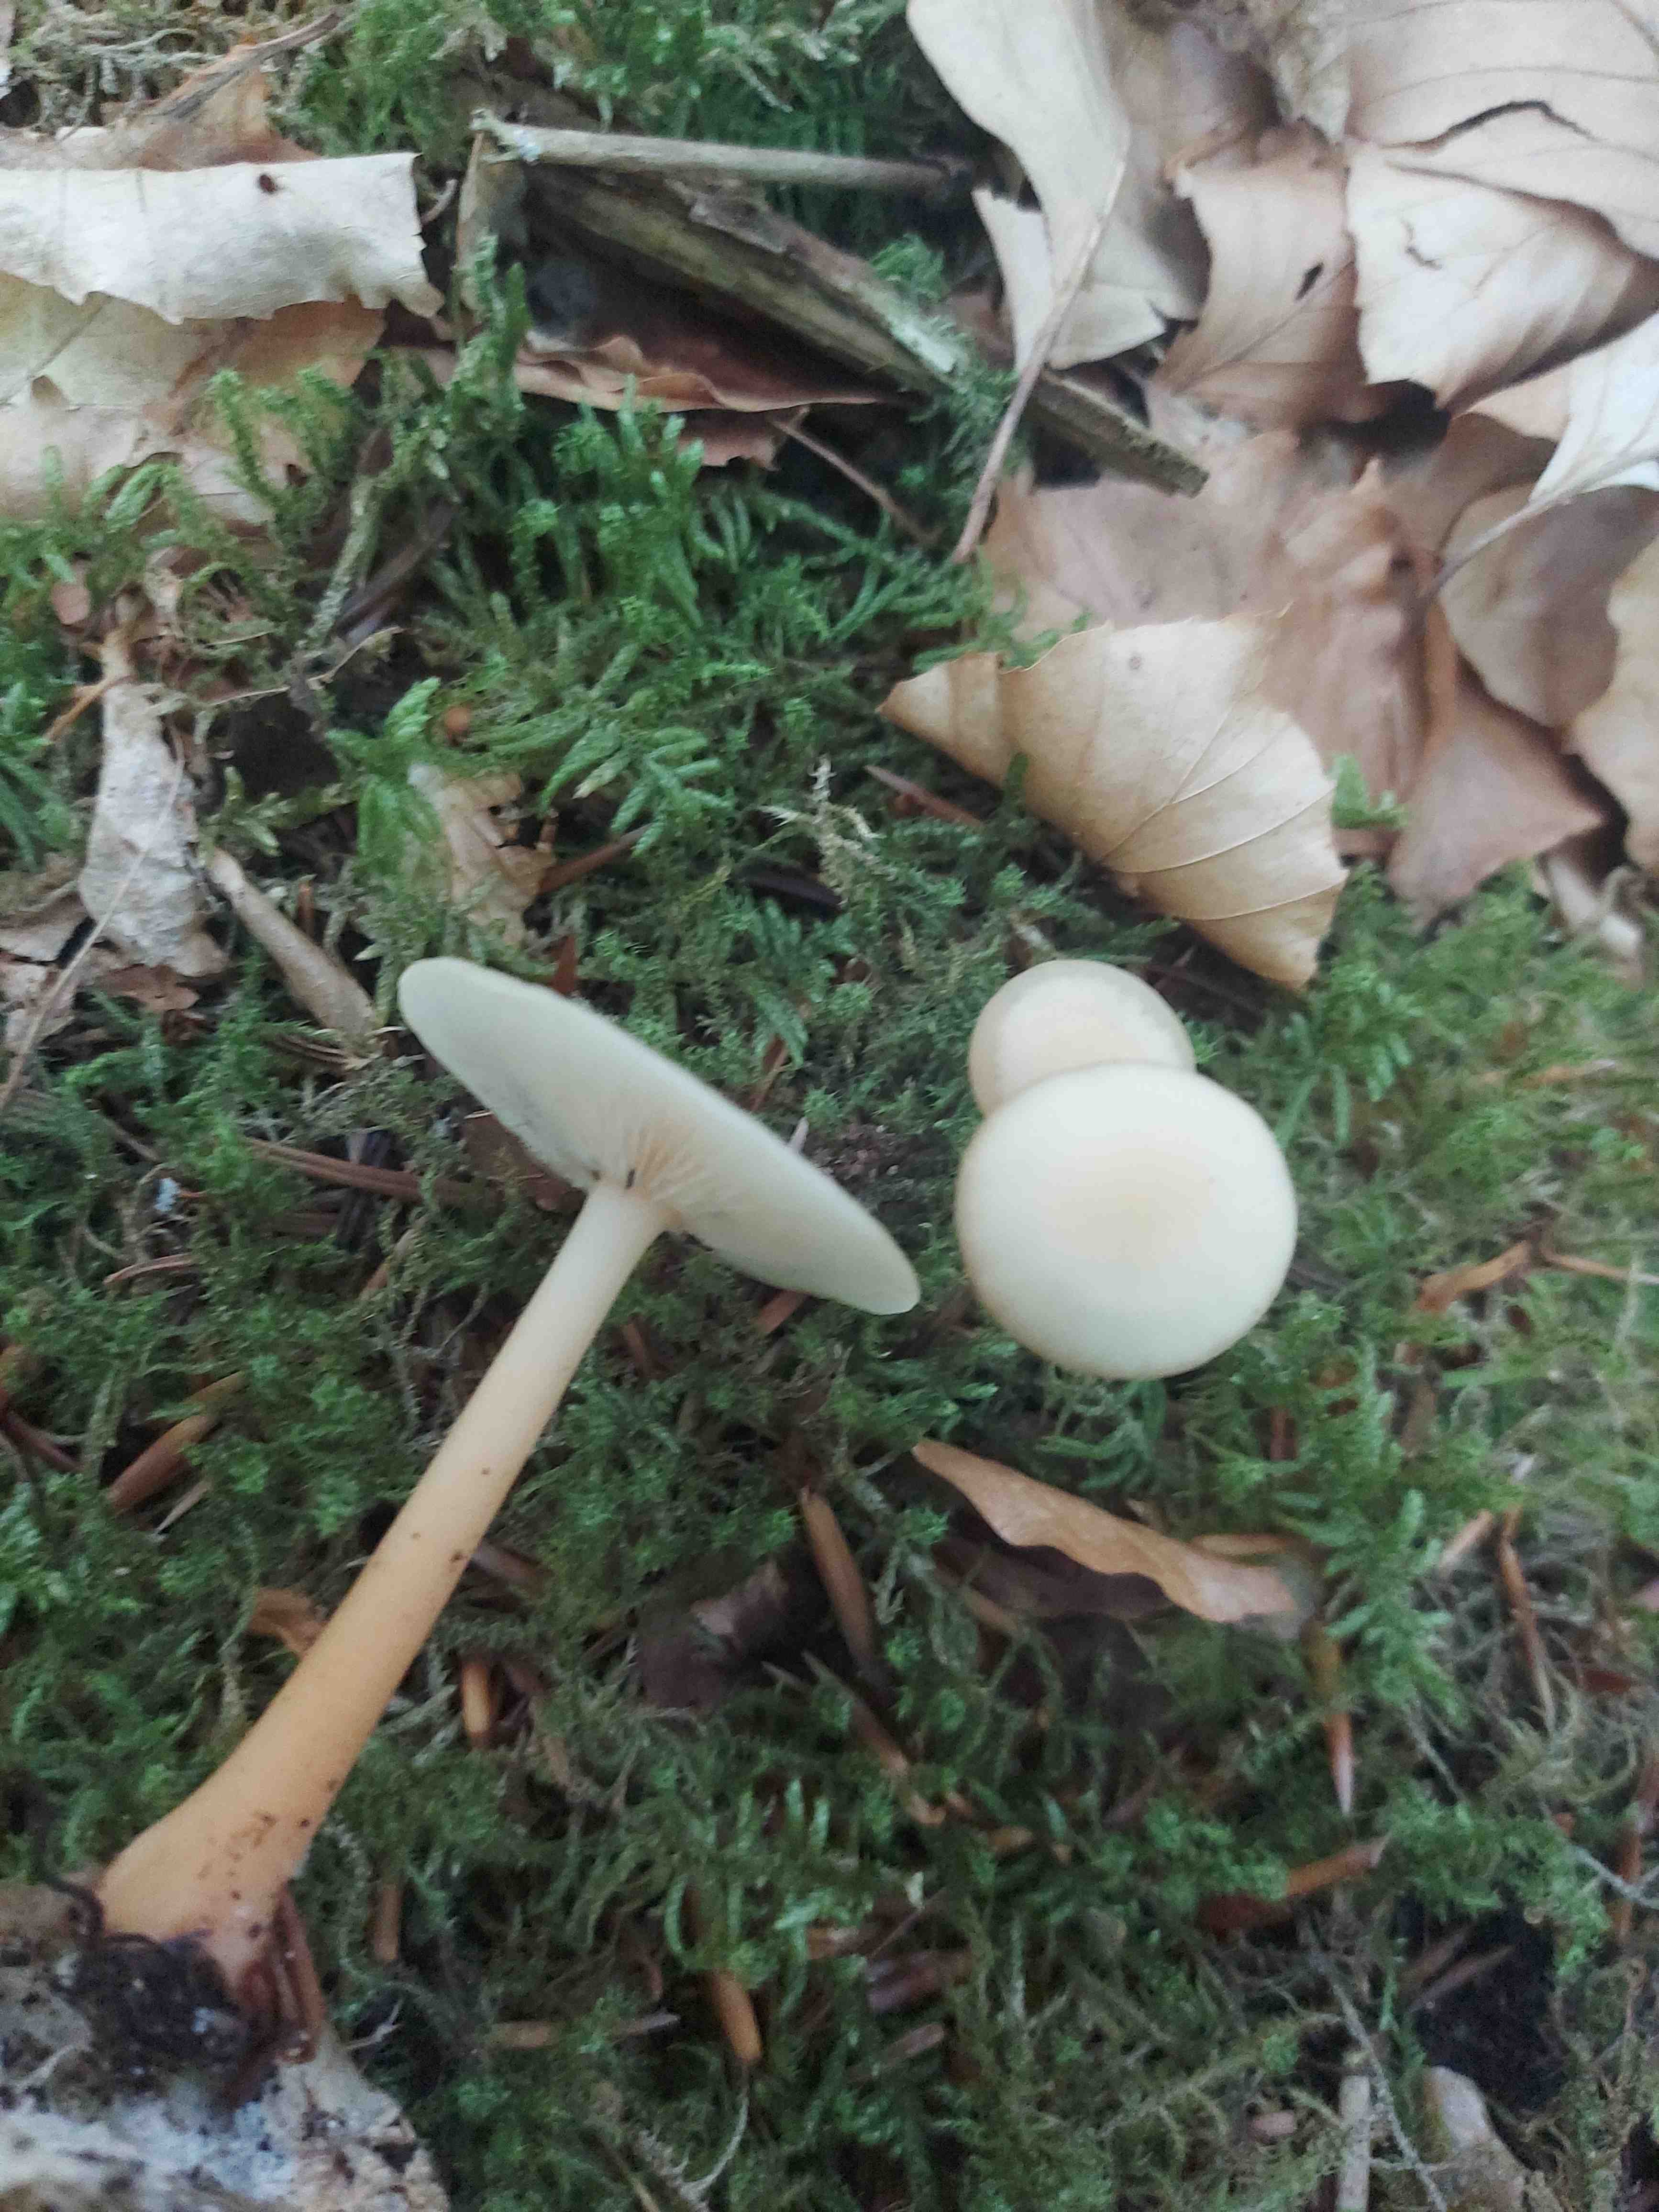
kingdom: Fungi
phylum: Basidiomycota
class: Agaricomycetes
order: Agaricales
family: Omphalotaceae
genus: Gymnopus
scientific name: Gymnopus aquosus
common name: bleg fladhat
